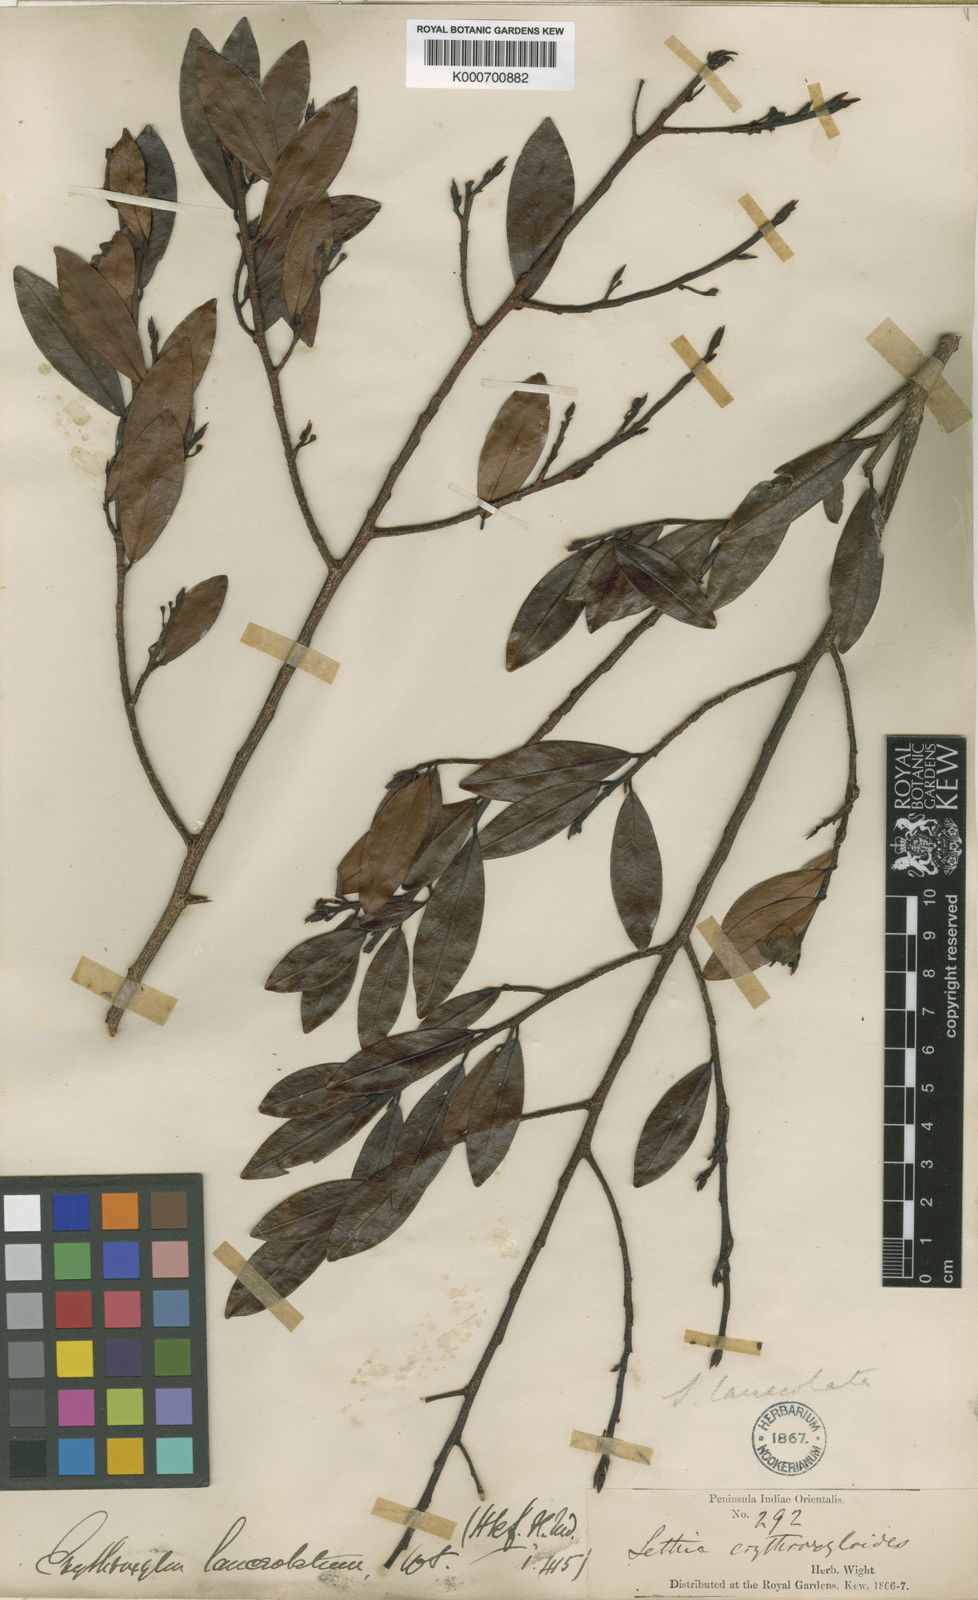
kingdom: Plantae
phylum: Tracheophyta
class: Magnoliopsida
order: Malpighiales
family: Erythroxylaceae
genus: Erythroxylum
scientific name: Erythroxylum lanceolatum
